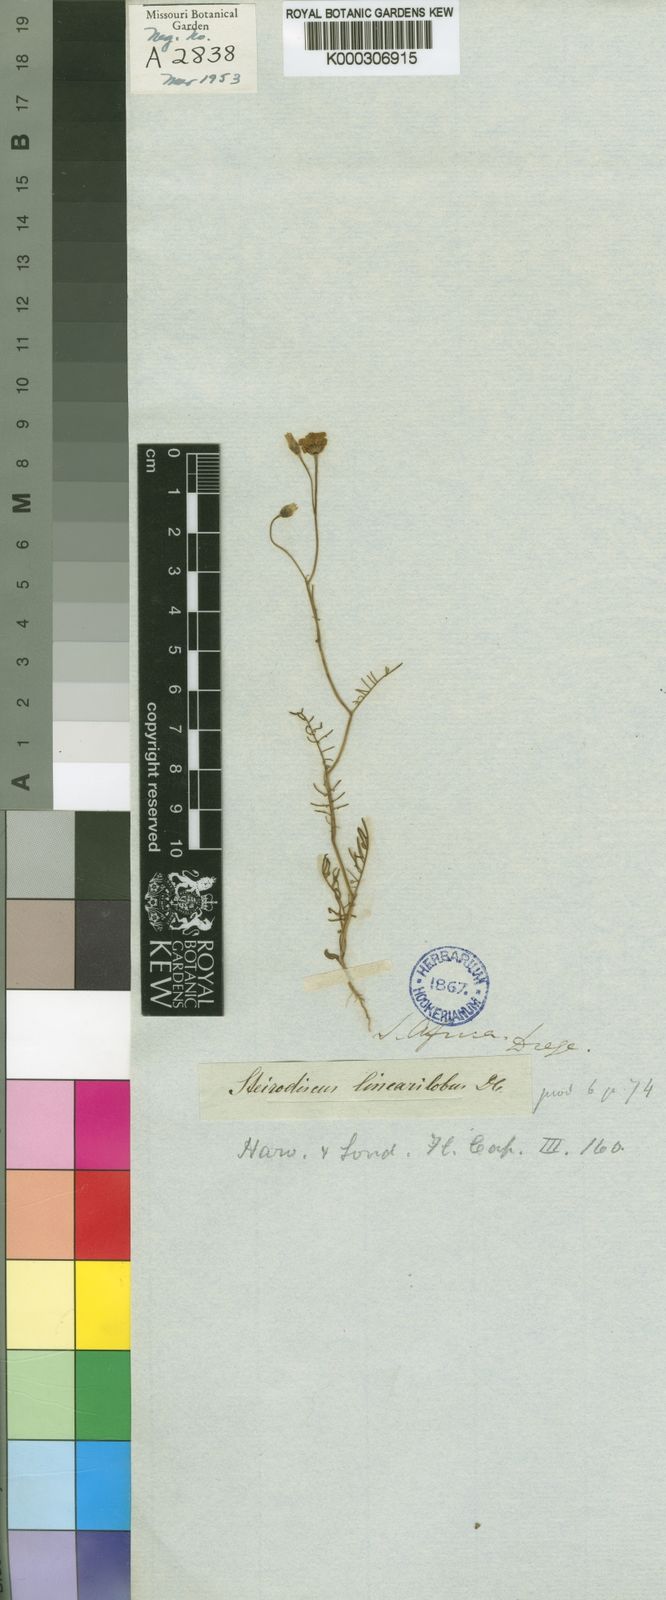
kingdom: Plantae
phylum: Tracheophyta
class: Magnoliopsida
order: Asterales
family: Asteraceae
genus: Steirodiscus
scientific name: Steirodiscus linearilobus
